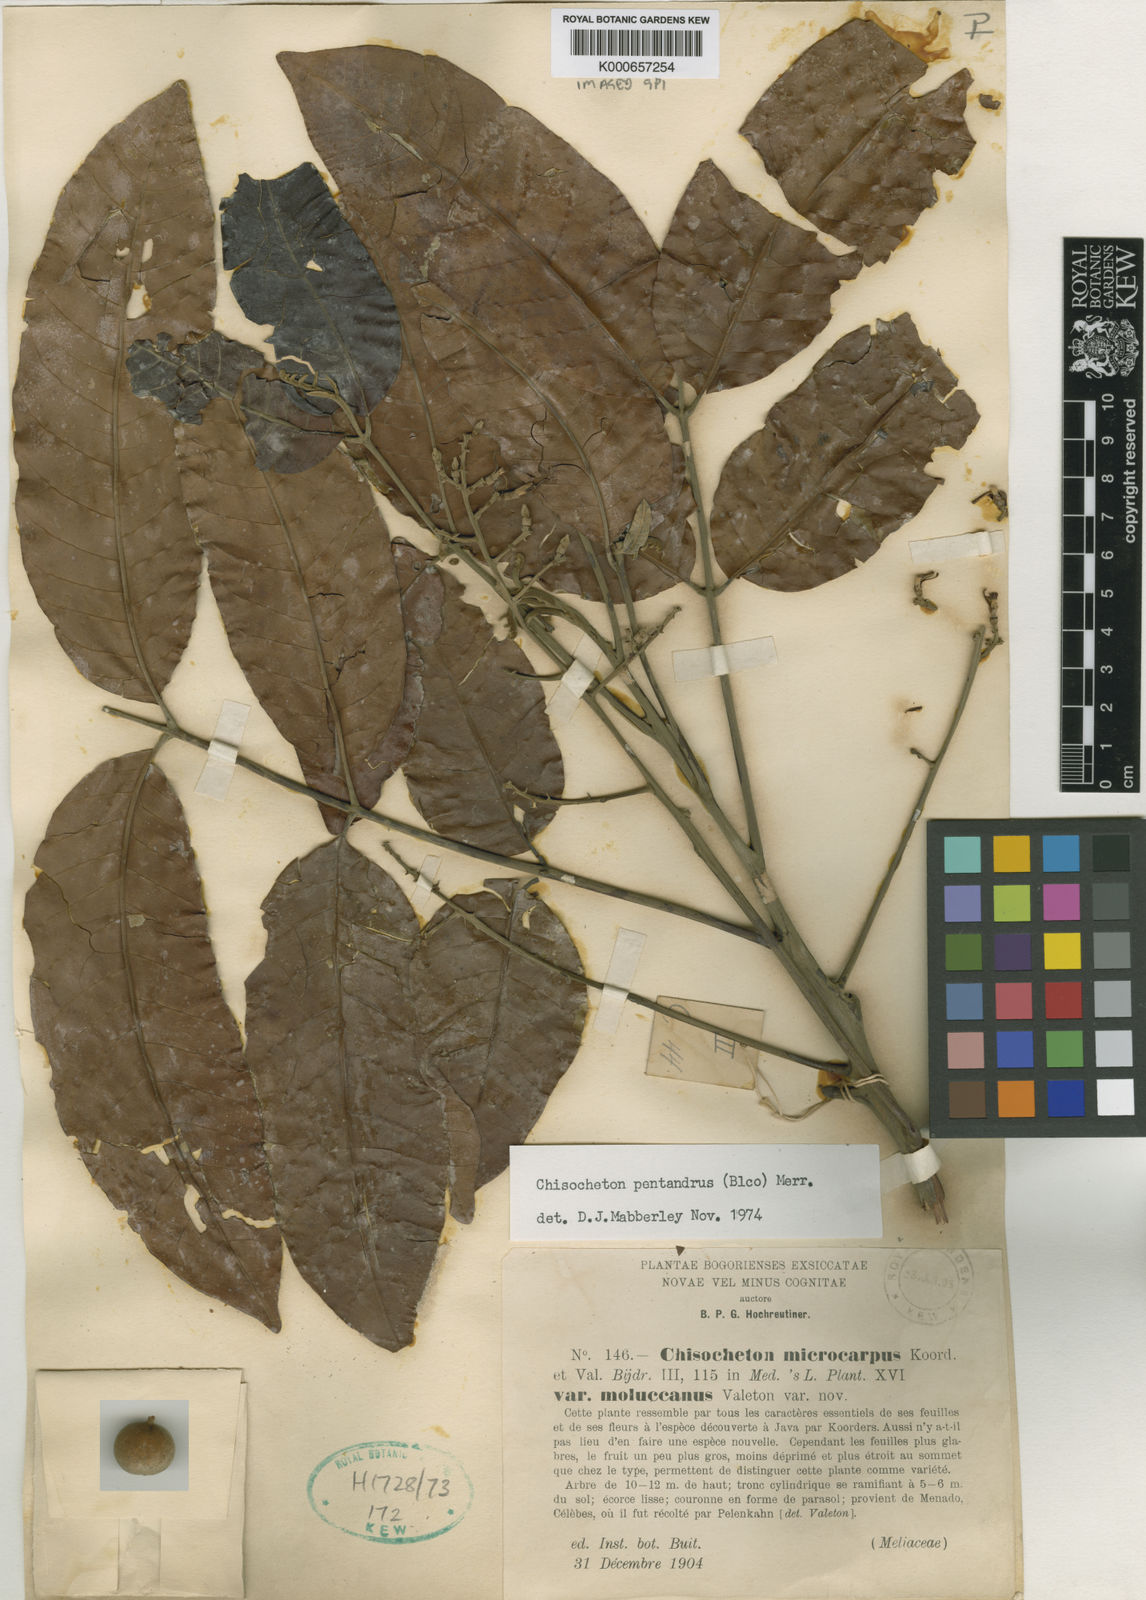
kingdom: Plantae
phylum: Tracheophyta
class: Magnoliopsida
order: Sapindales
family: Meliaceae
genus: Chisocheton
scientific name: Chisocheton pentandrus
